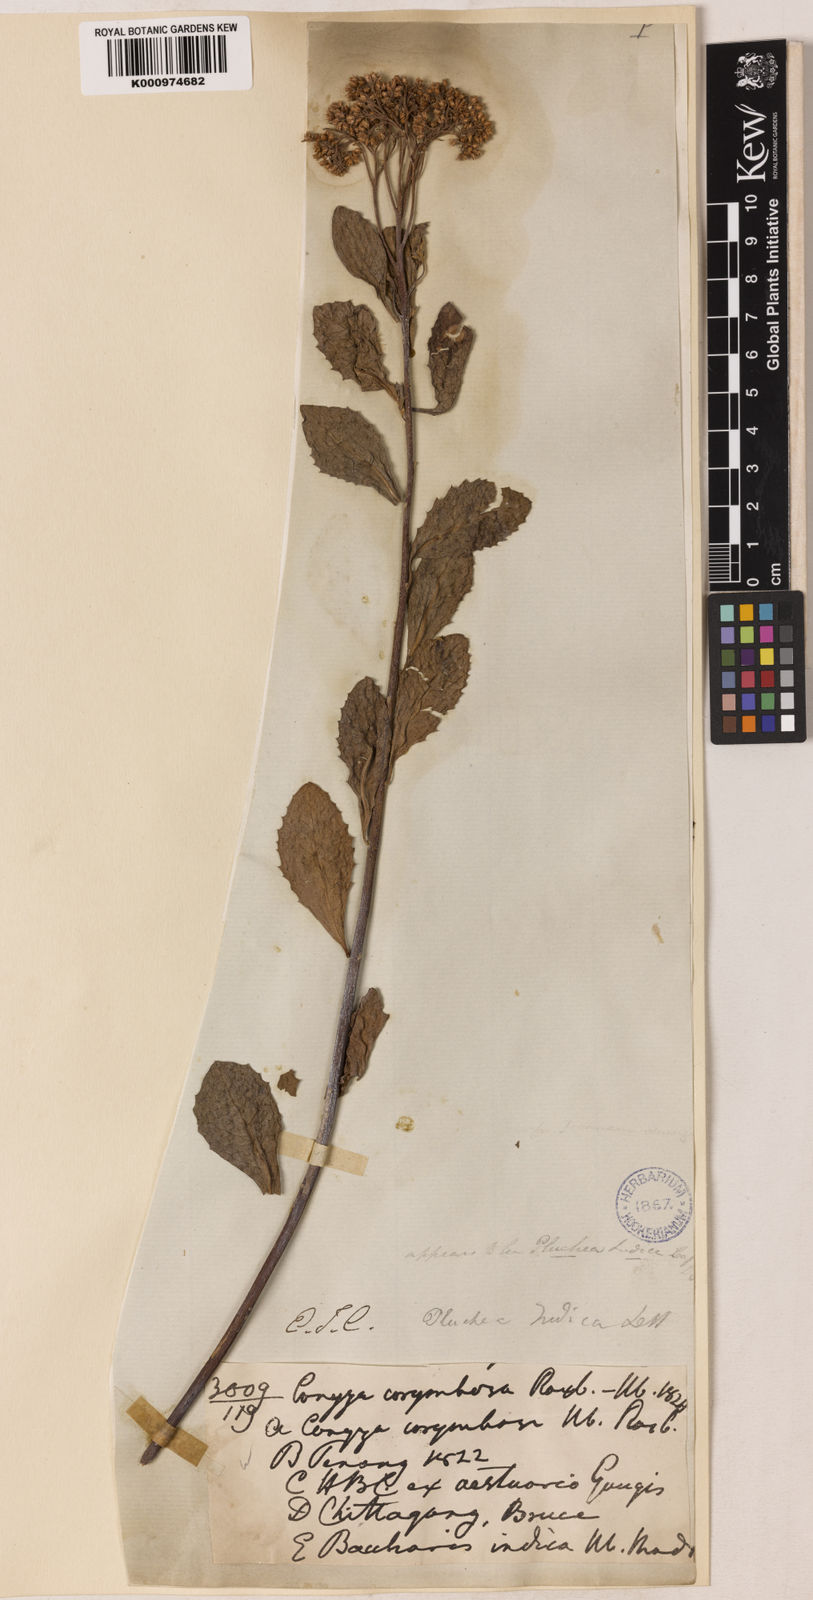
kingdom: Plantae
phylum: Tracheophyta
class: Magnoliopsida
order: Asterales
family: Asteraceae
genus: Pluchea
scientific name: Pluchea indica
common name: Indian fleabane
